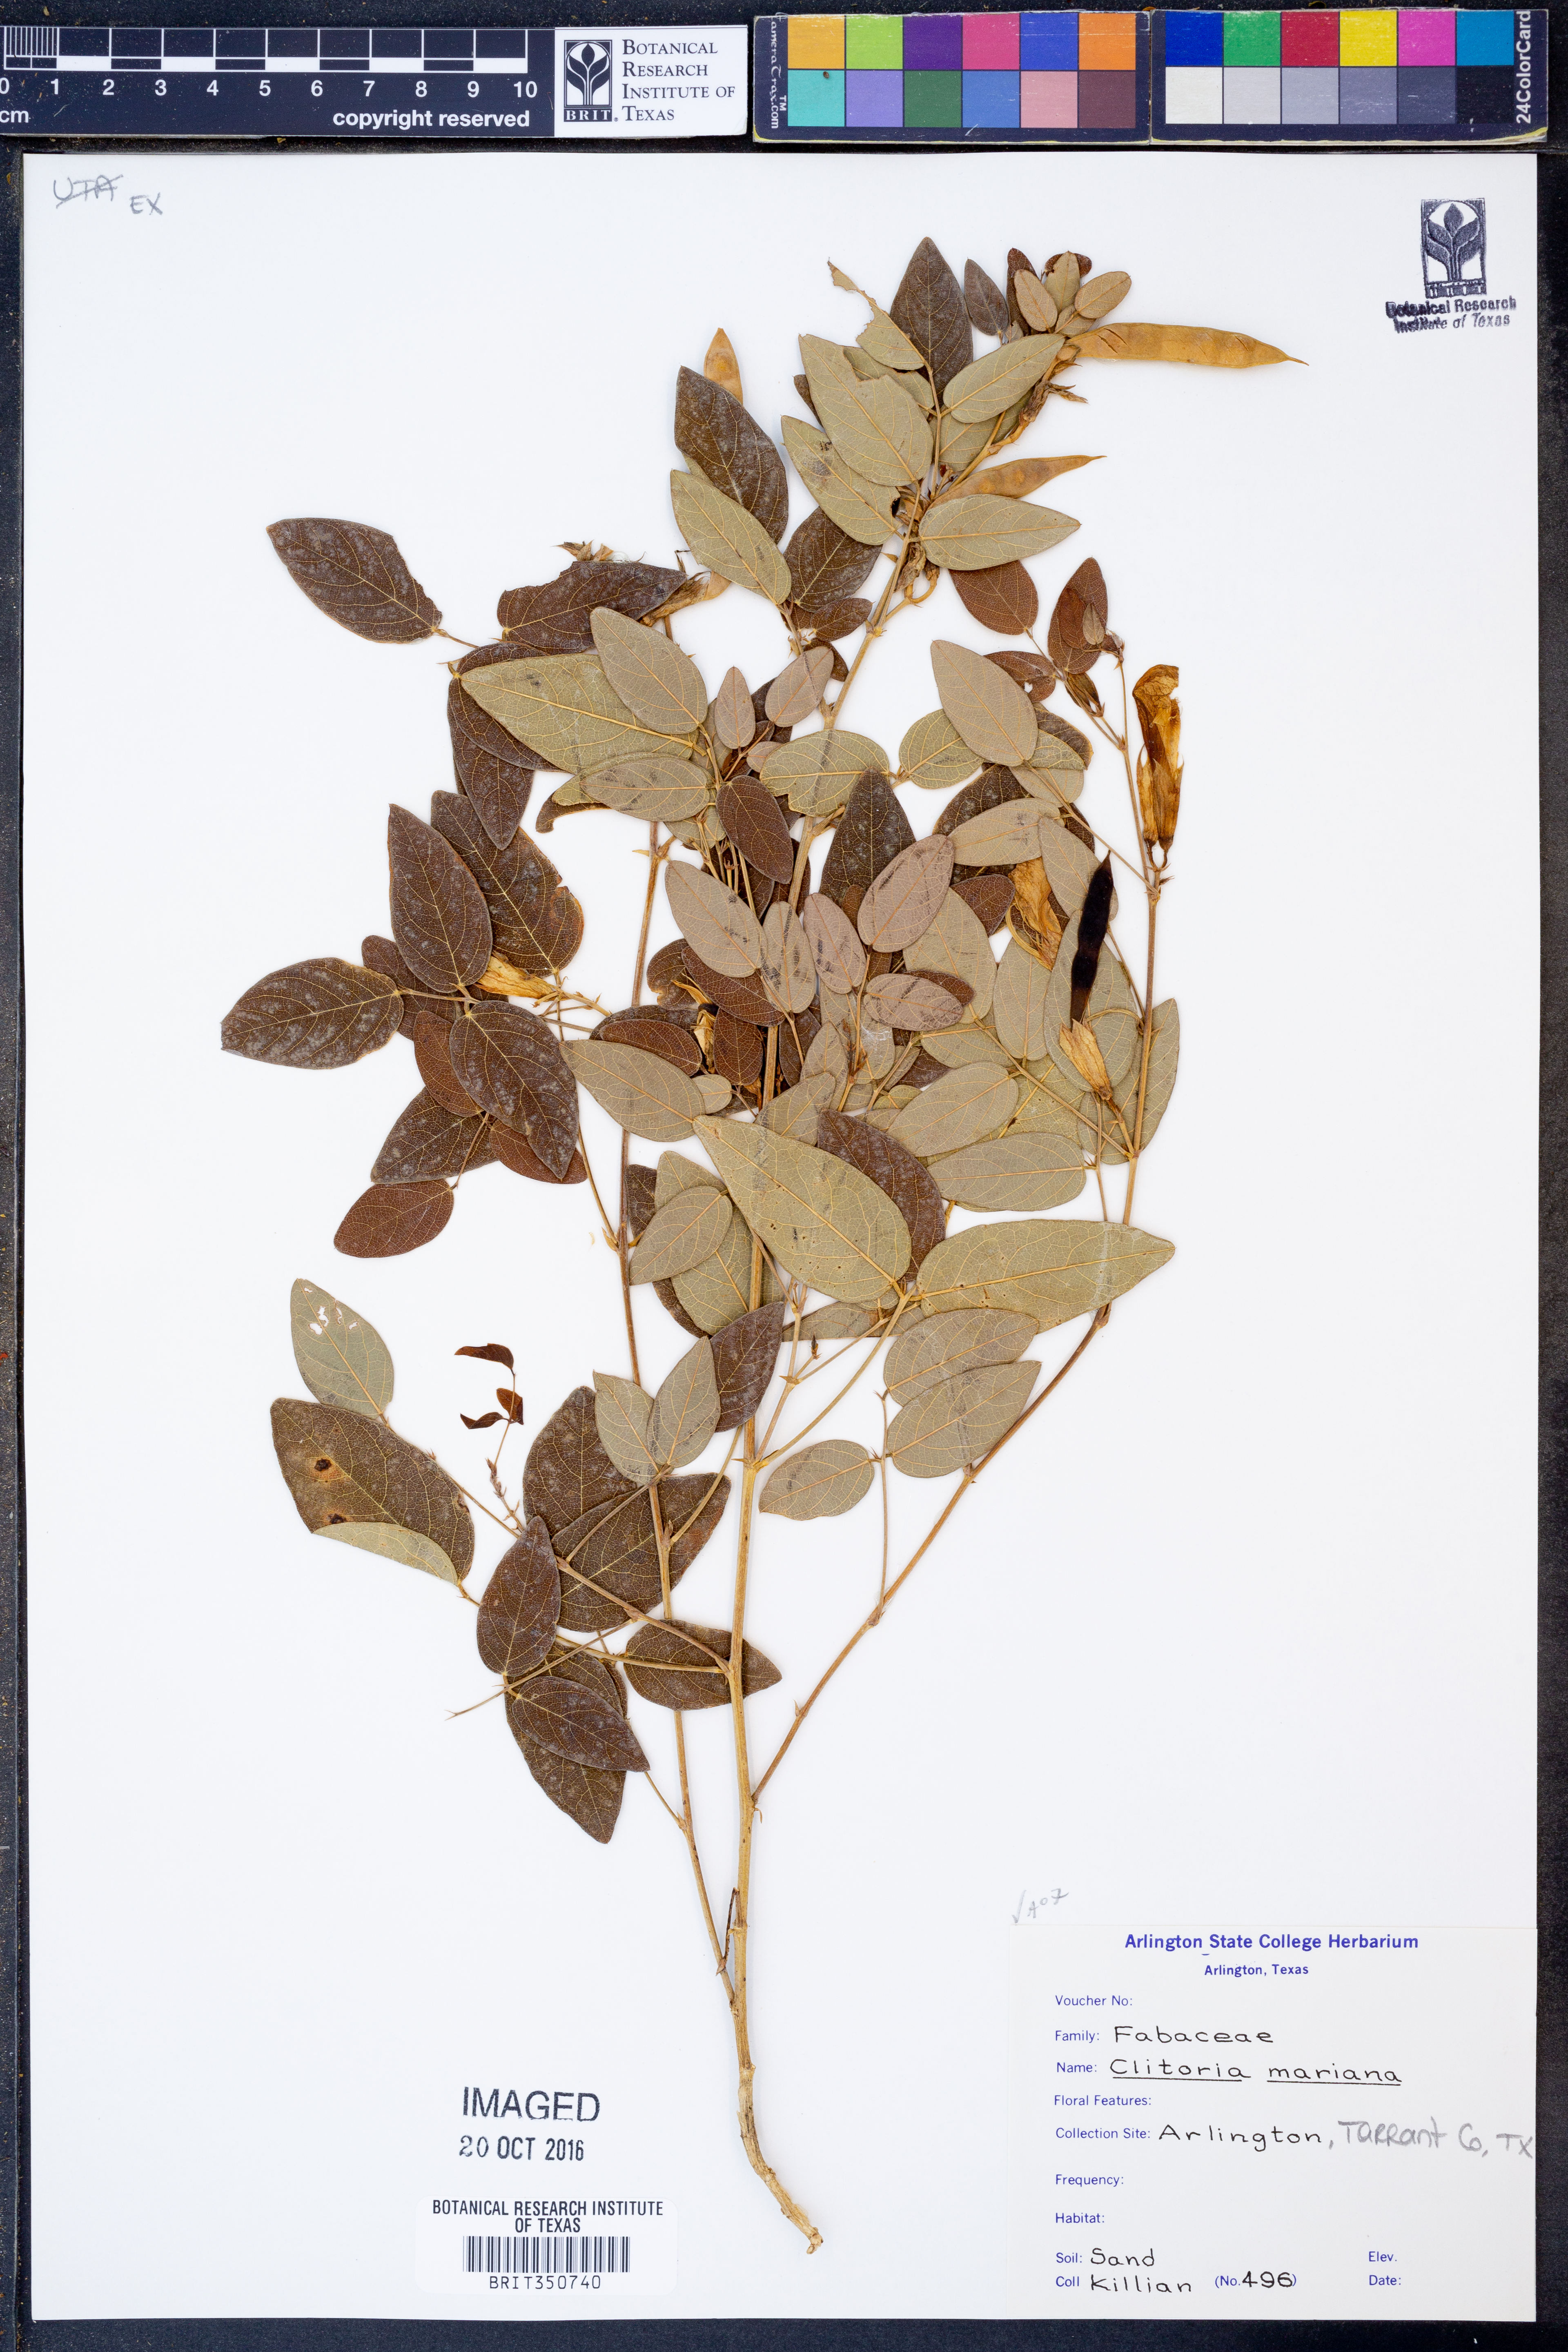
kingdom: Plantae
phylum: Tracheophyta
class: Magnoliopsida
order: Fabales
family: Fabaceae
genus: Clitoria
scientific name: Clitoria mariana
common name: Butterfly-pea
